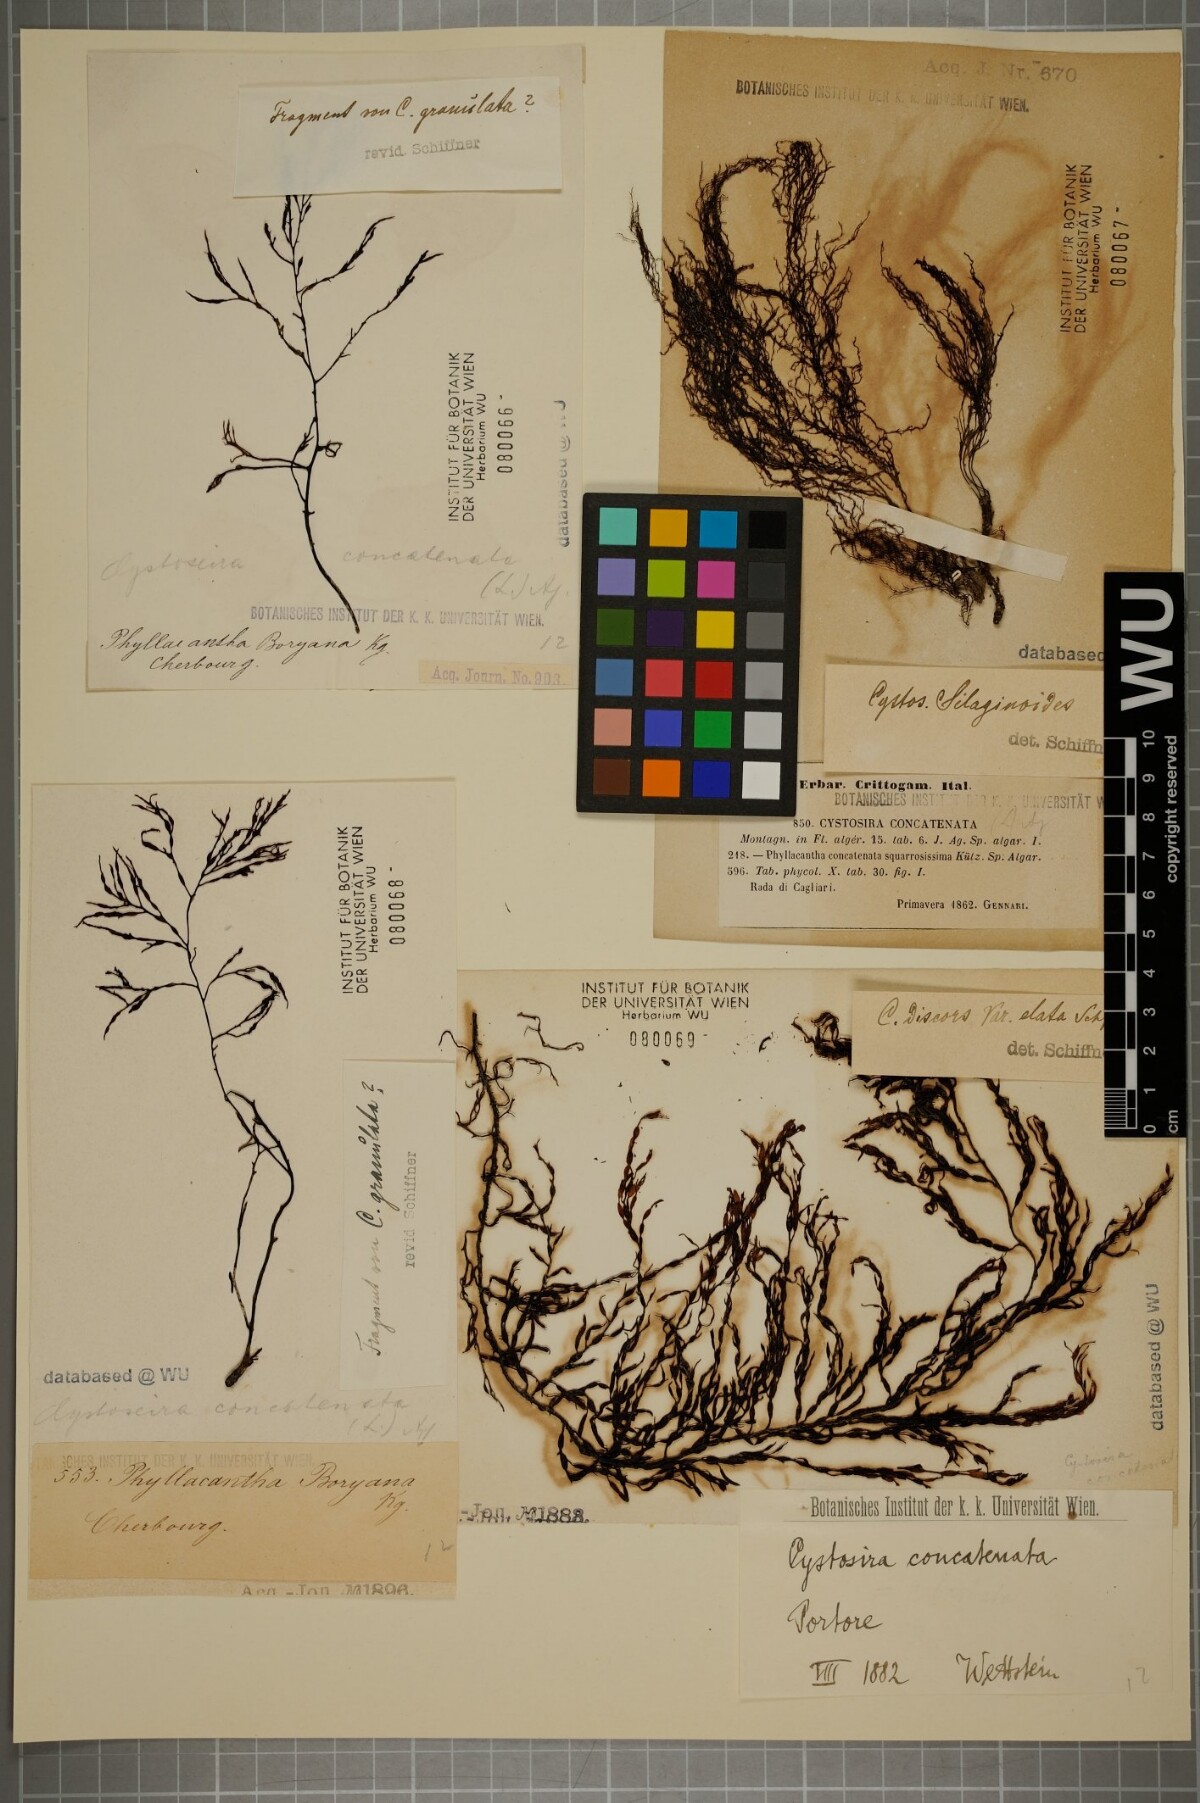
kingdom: Chromista
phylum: Ochrophyta
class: Phaeophyceae
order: Fucales
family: Sargassaceae
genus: Cystoseira
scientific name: Cystoseira foeniculacea
